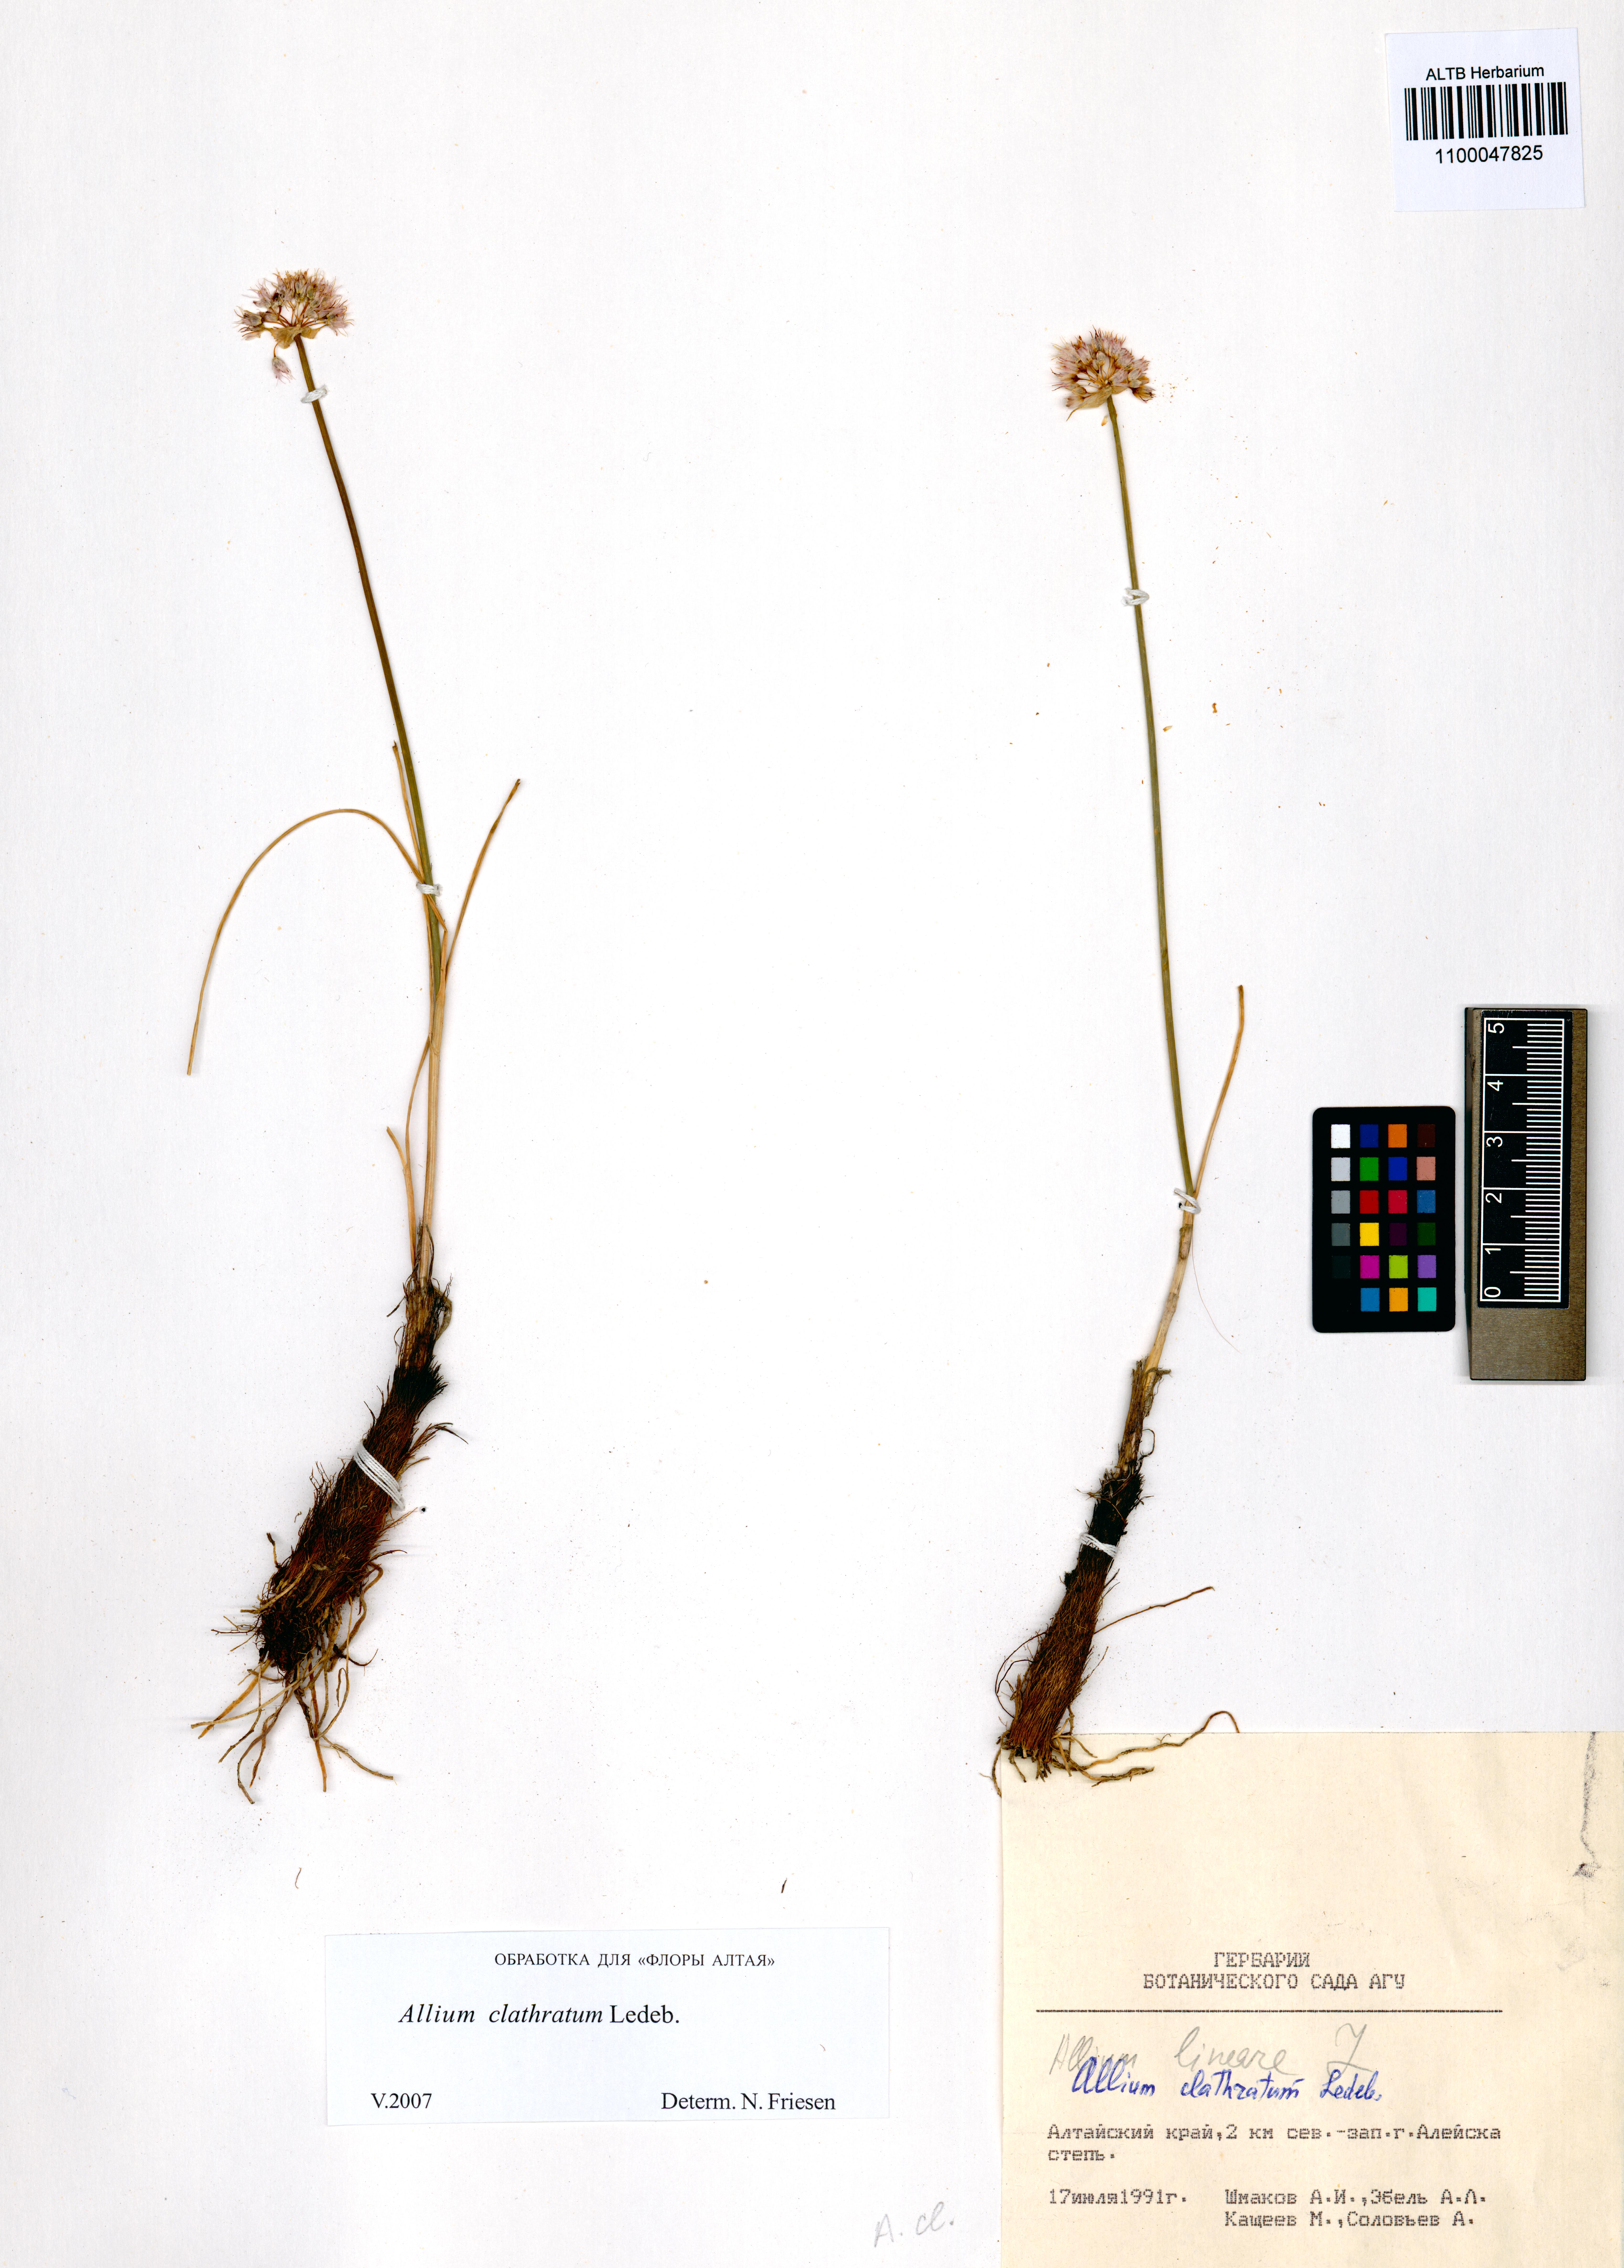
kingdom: Plantae
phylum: Tracheophyta
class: Liliopsida
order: Asparagales
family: Amaryllidaceae
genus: Allium
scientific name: Allium clathratum
